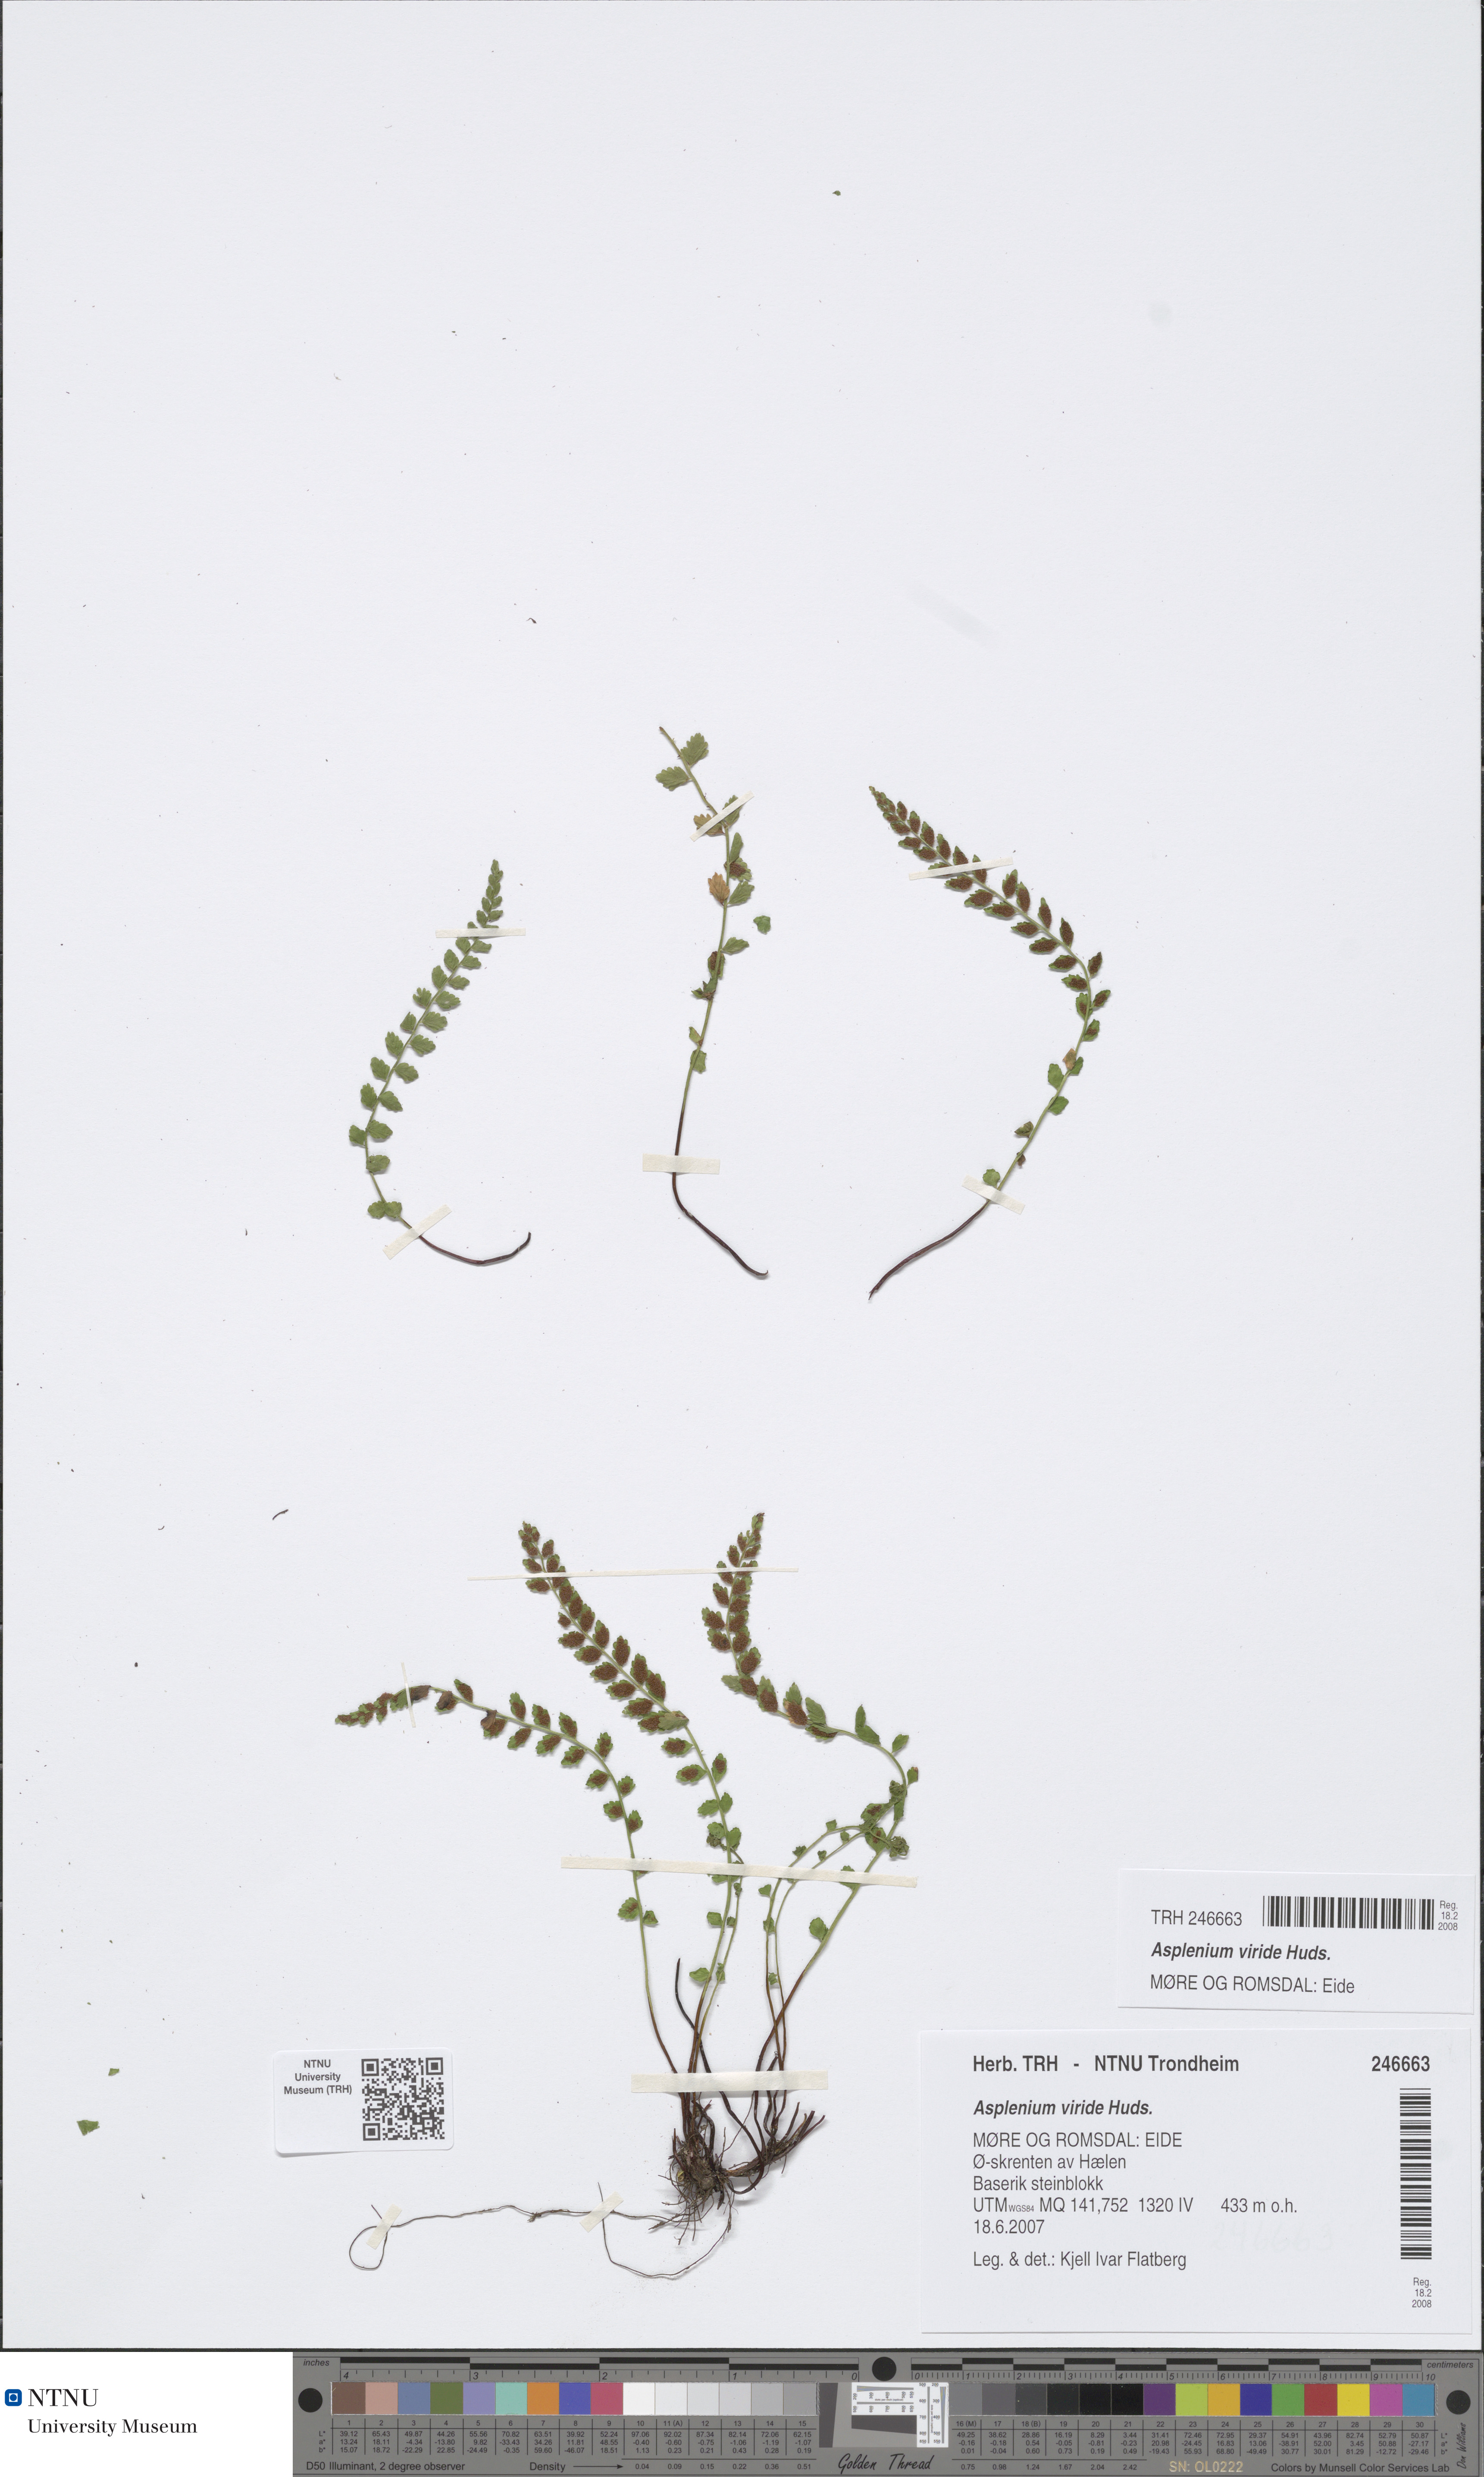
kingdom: Plantae
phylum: Tracheophyta
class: Polypodiopsida
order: Polypodiales
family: Aspleniaceae
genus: Asplenium
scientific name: Asplenium viride
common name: Green spleenwort
